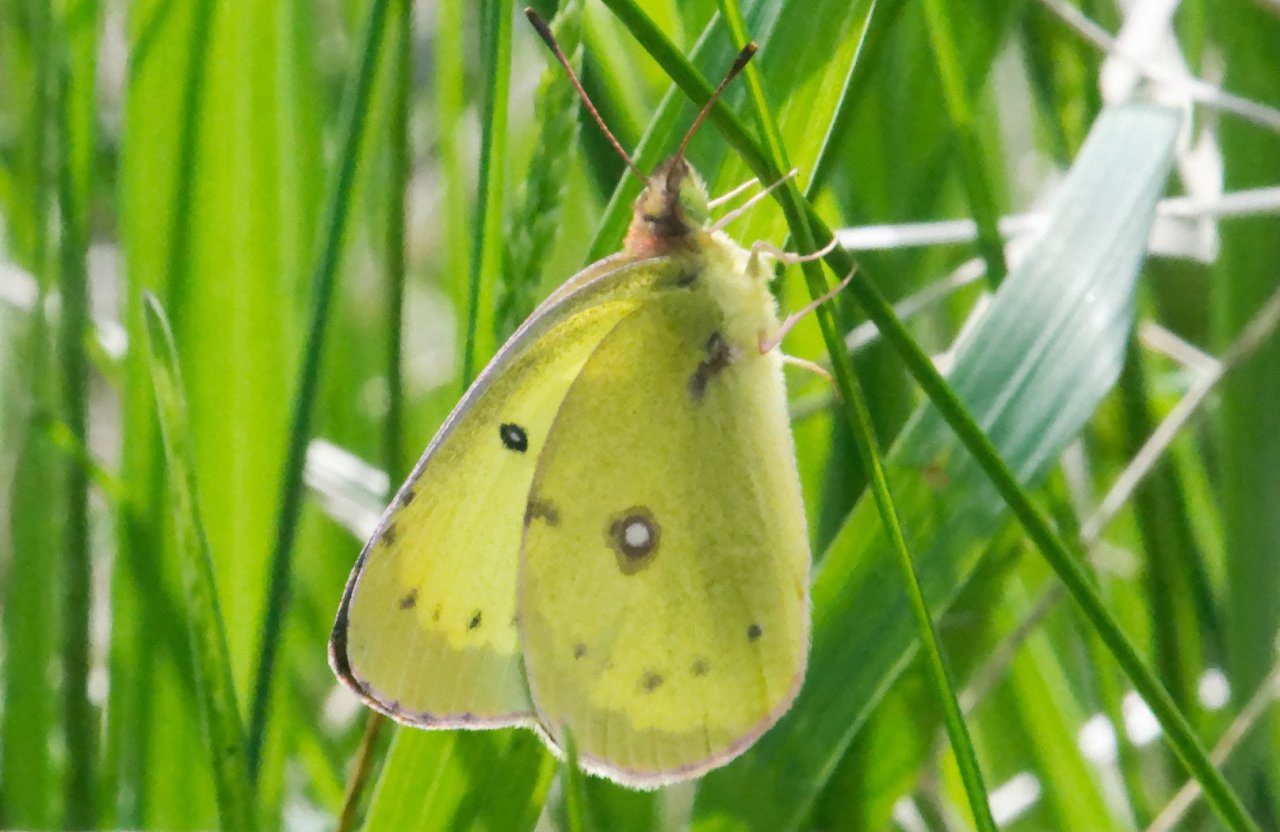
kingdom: Animalia
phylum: Arthropoda
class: Insecta
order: Lepidoptera
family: Pieridae
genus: Colias
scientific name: Colias philodice
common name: Clouded Sulphur
